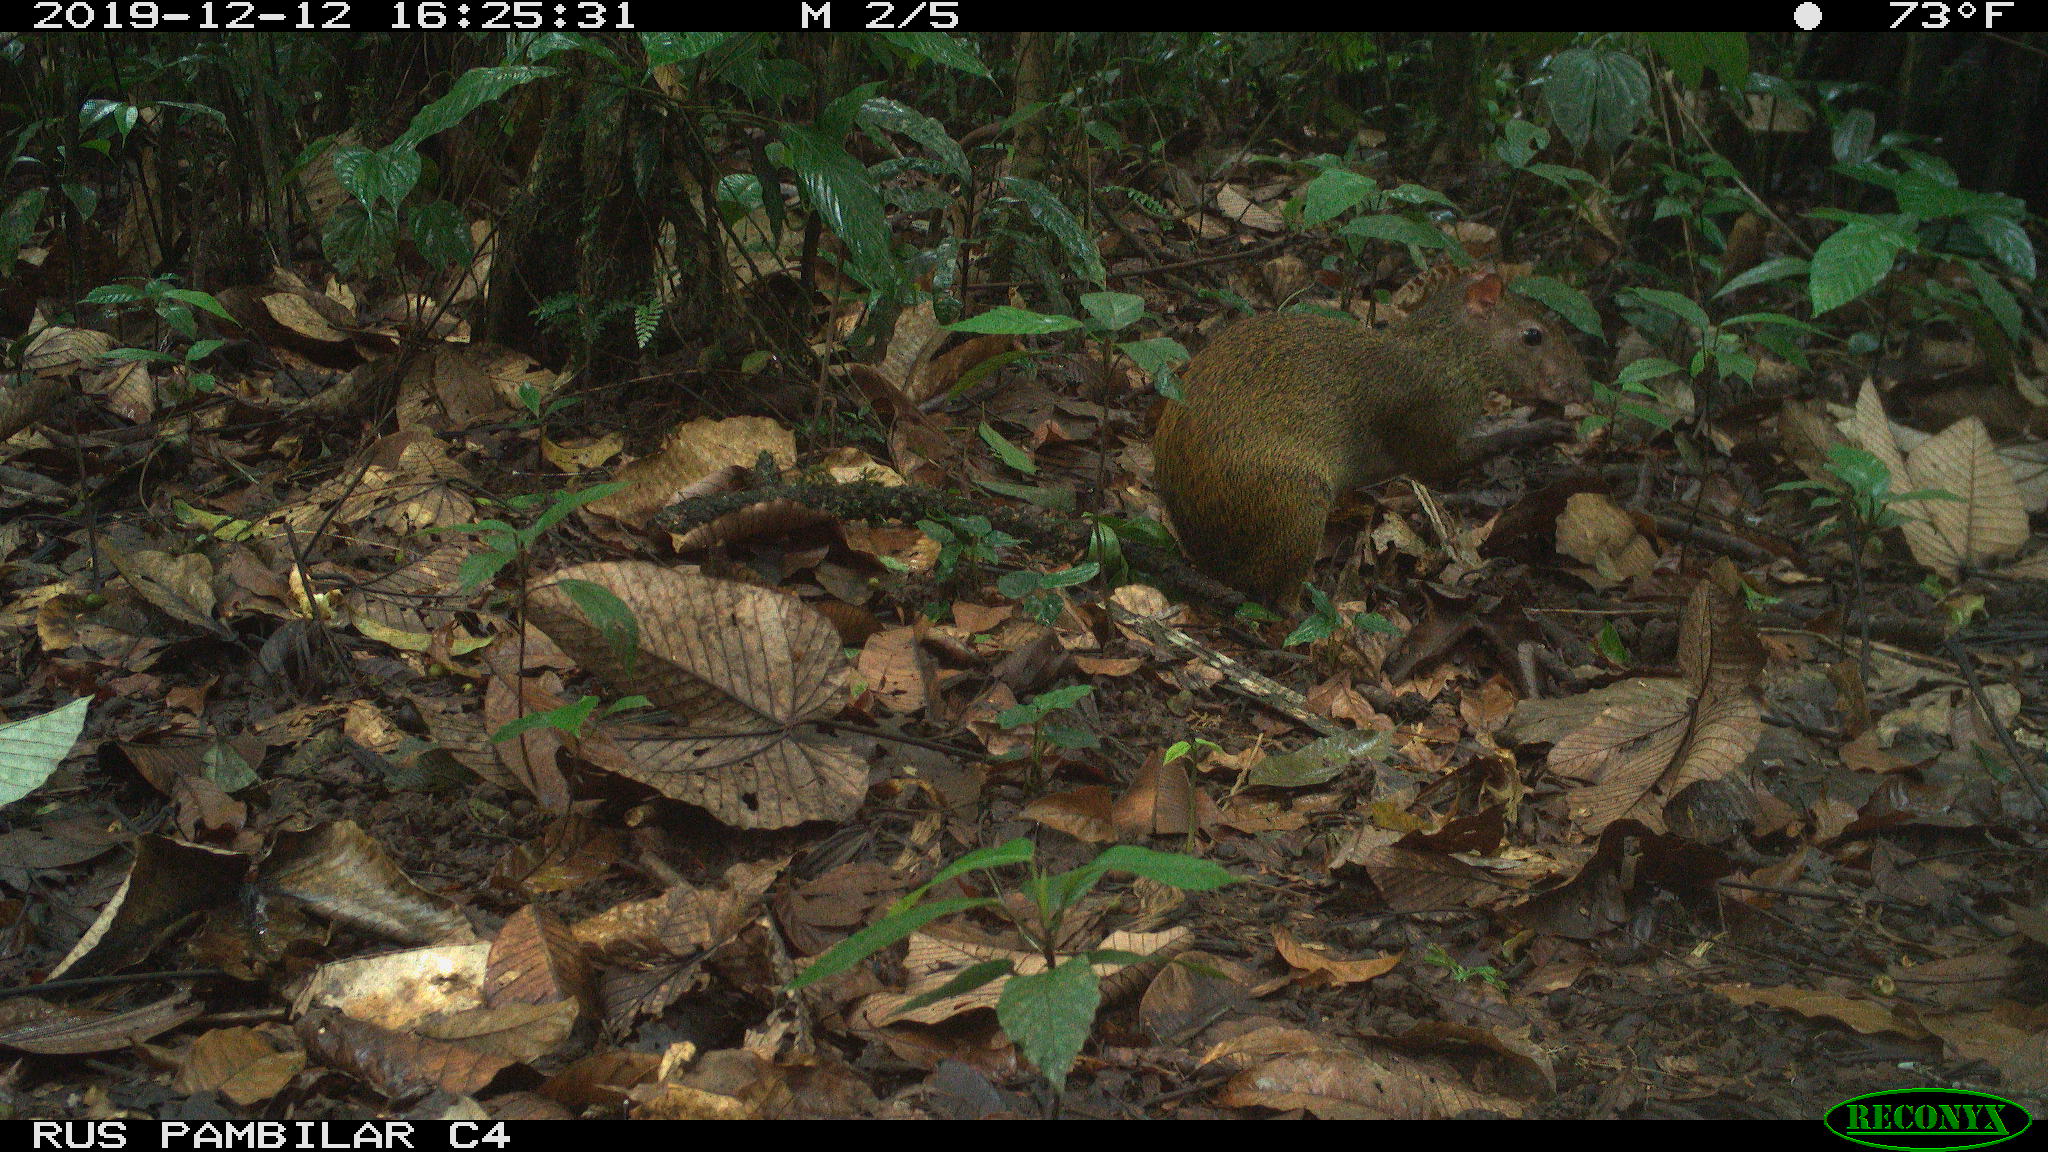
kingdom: Animalia
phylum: Chordata
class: Mammalia
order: Rodentia
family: Dasyproctidae
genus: Dasyprocta
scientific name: Dasyprocta punctata
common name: Central american agouti
